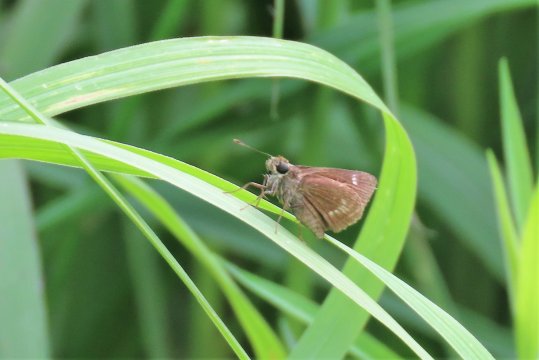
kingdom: Animalia
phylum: Arthropoda
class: Insecta
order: Lepidoptera
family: Hesperiidae
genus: Vernia
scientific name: Vernia verna
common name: Little Glassywing
